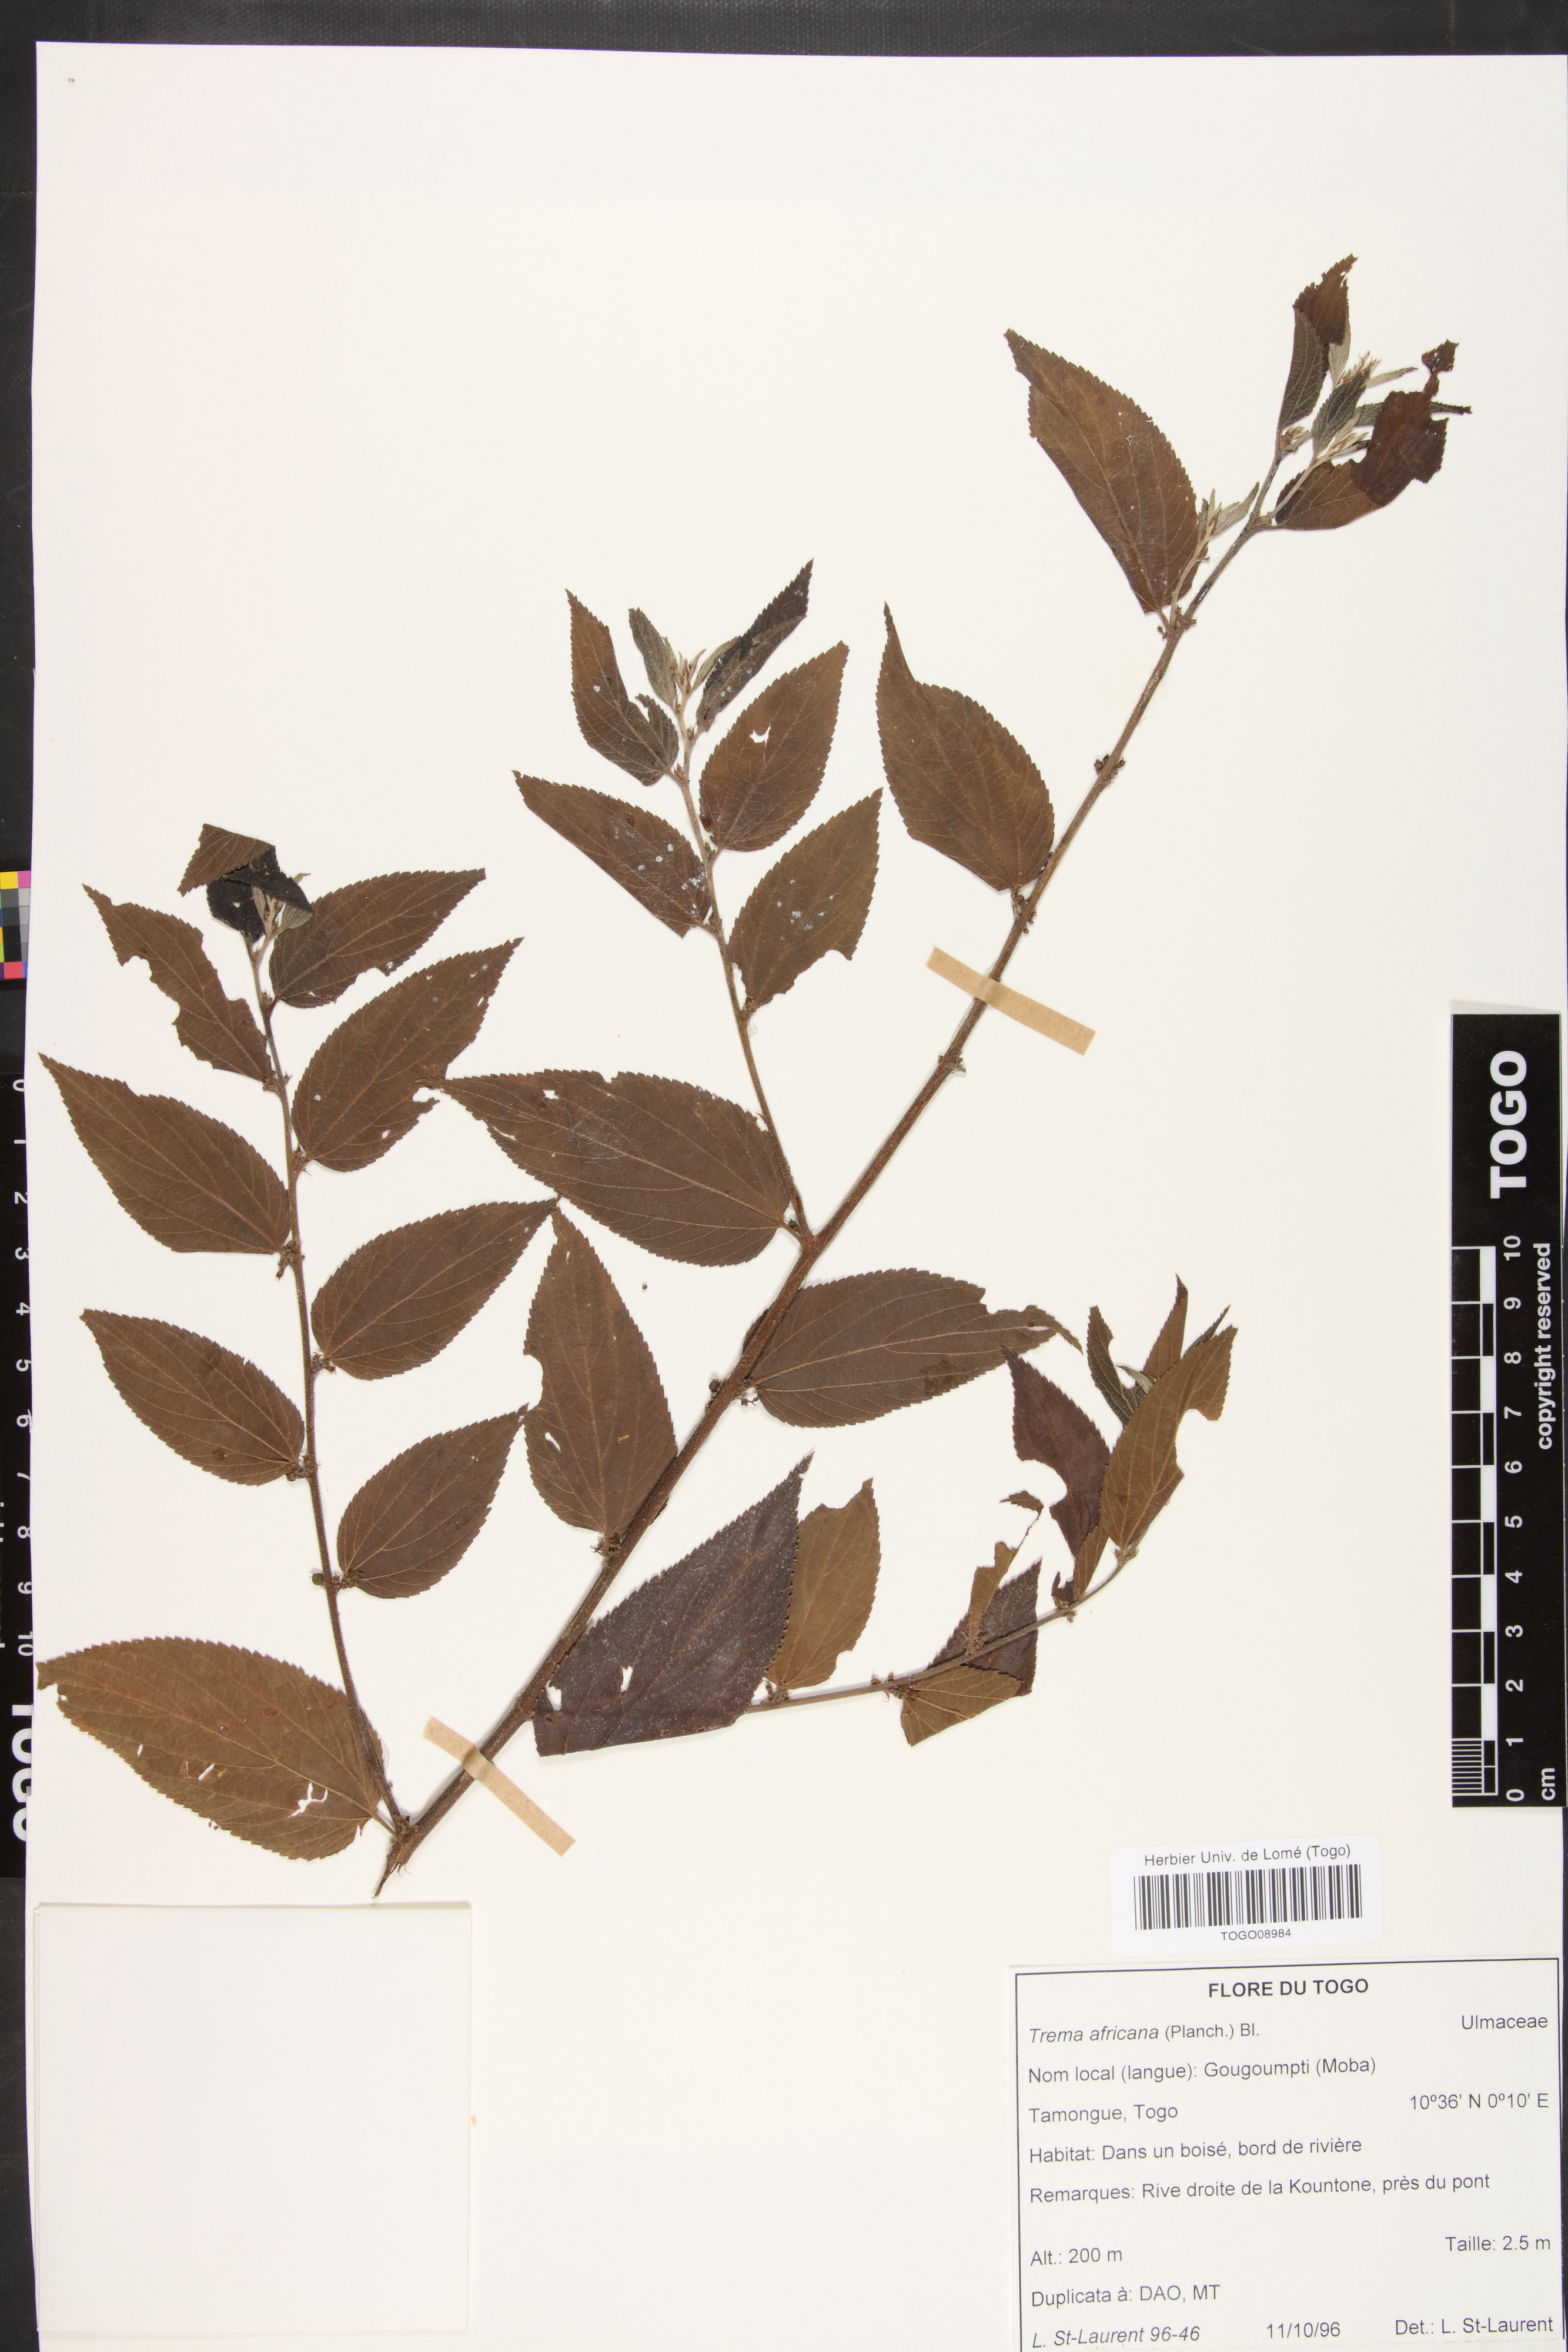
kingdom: Plantae
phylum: Tracheophyta
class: Magnoliopsida
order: Rosales
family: Cannabaceae
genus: Trema
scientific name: Trema orientale
